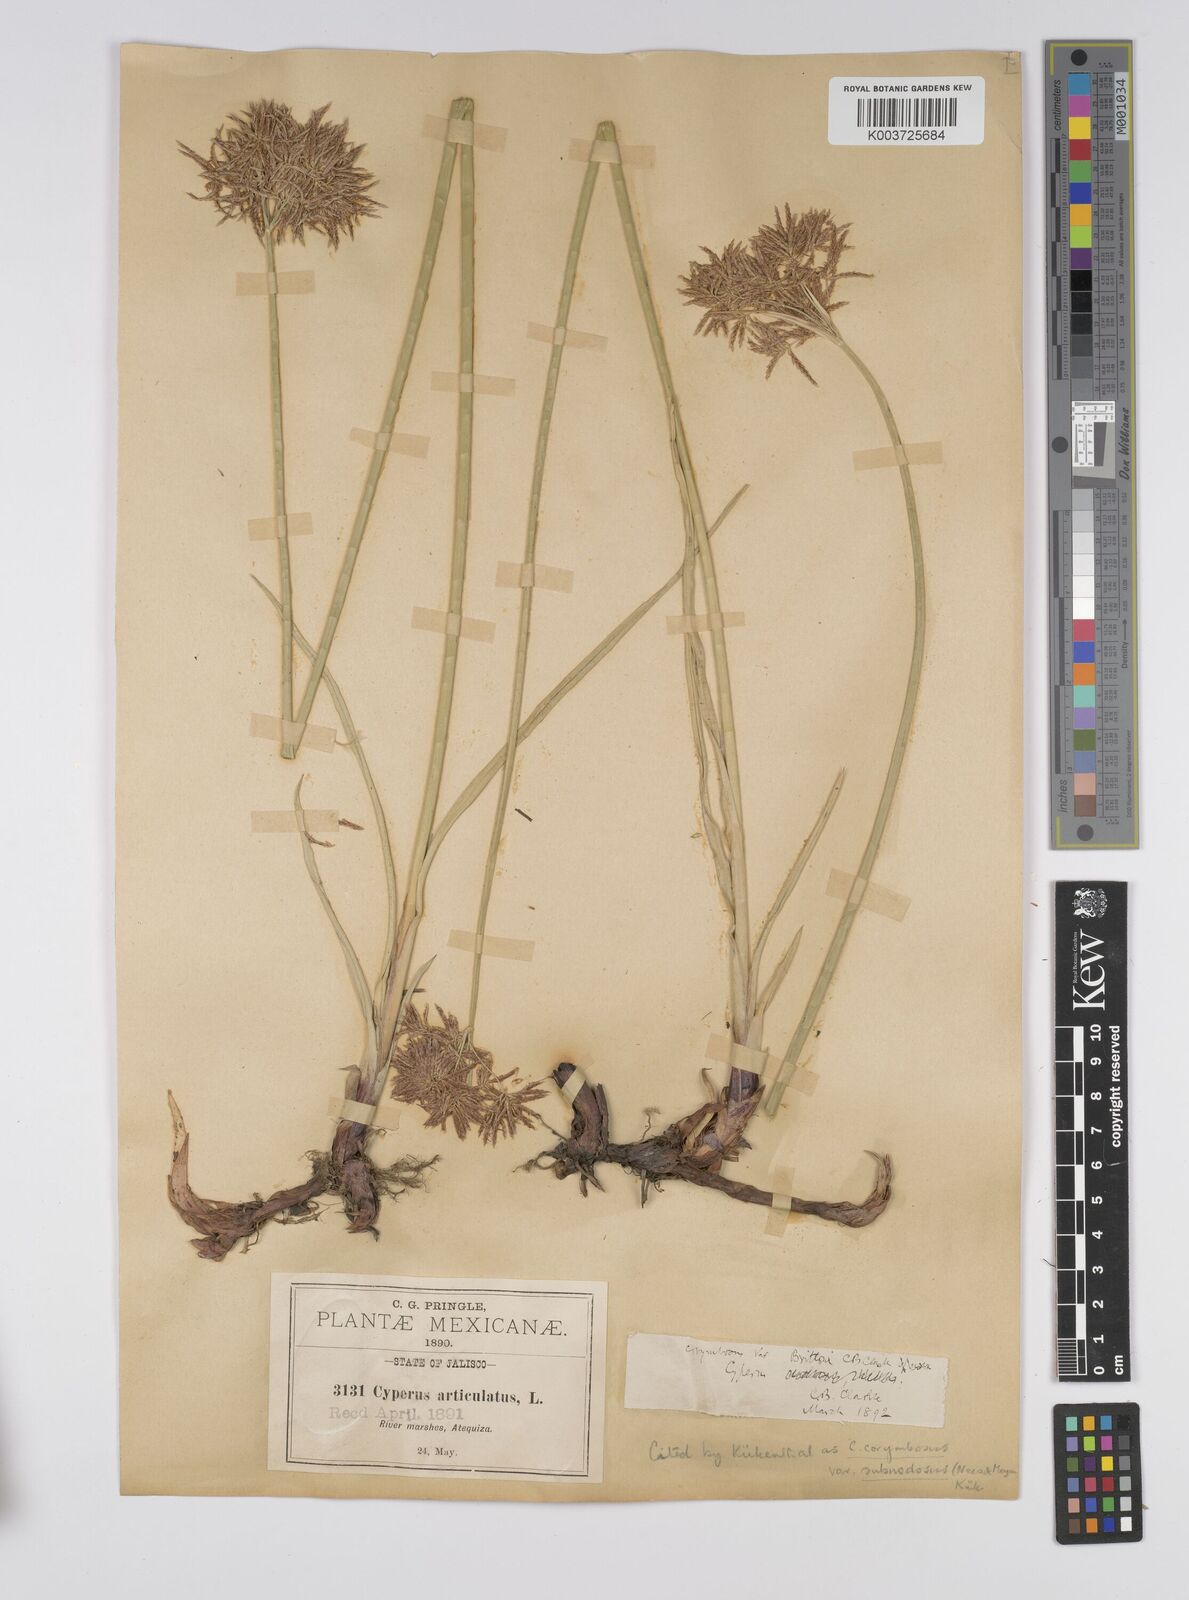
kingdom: Plantae
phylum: Tracheophyta
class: Liliopsida
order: Poales
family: Cyperaceae
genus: Cyperus
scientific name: Cyperus articulatus
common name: Jointed flatsedge
